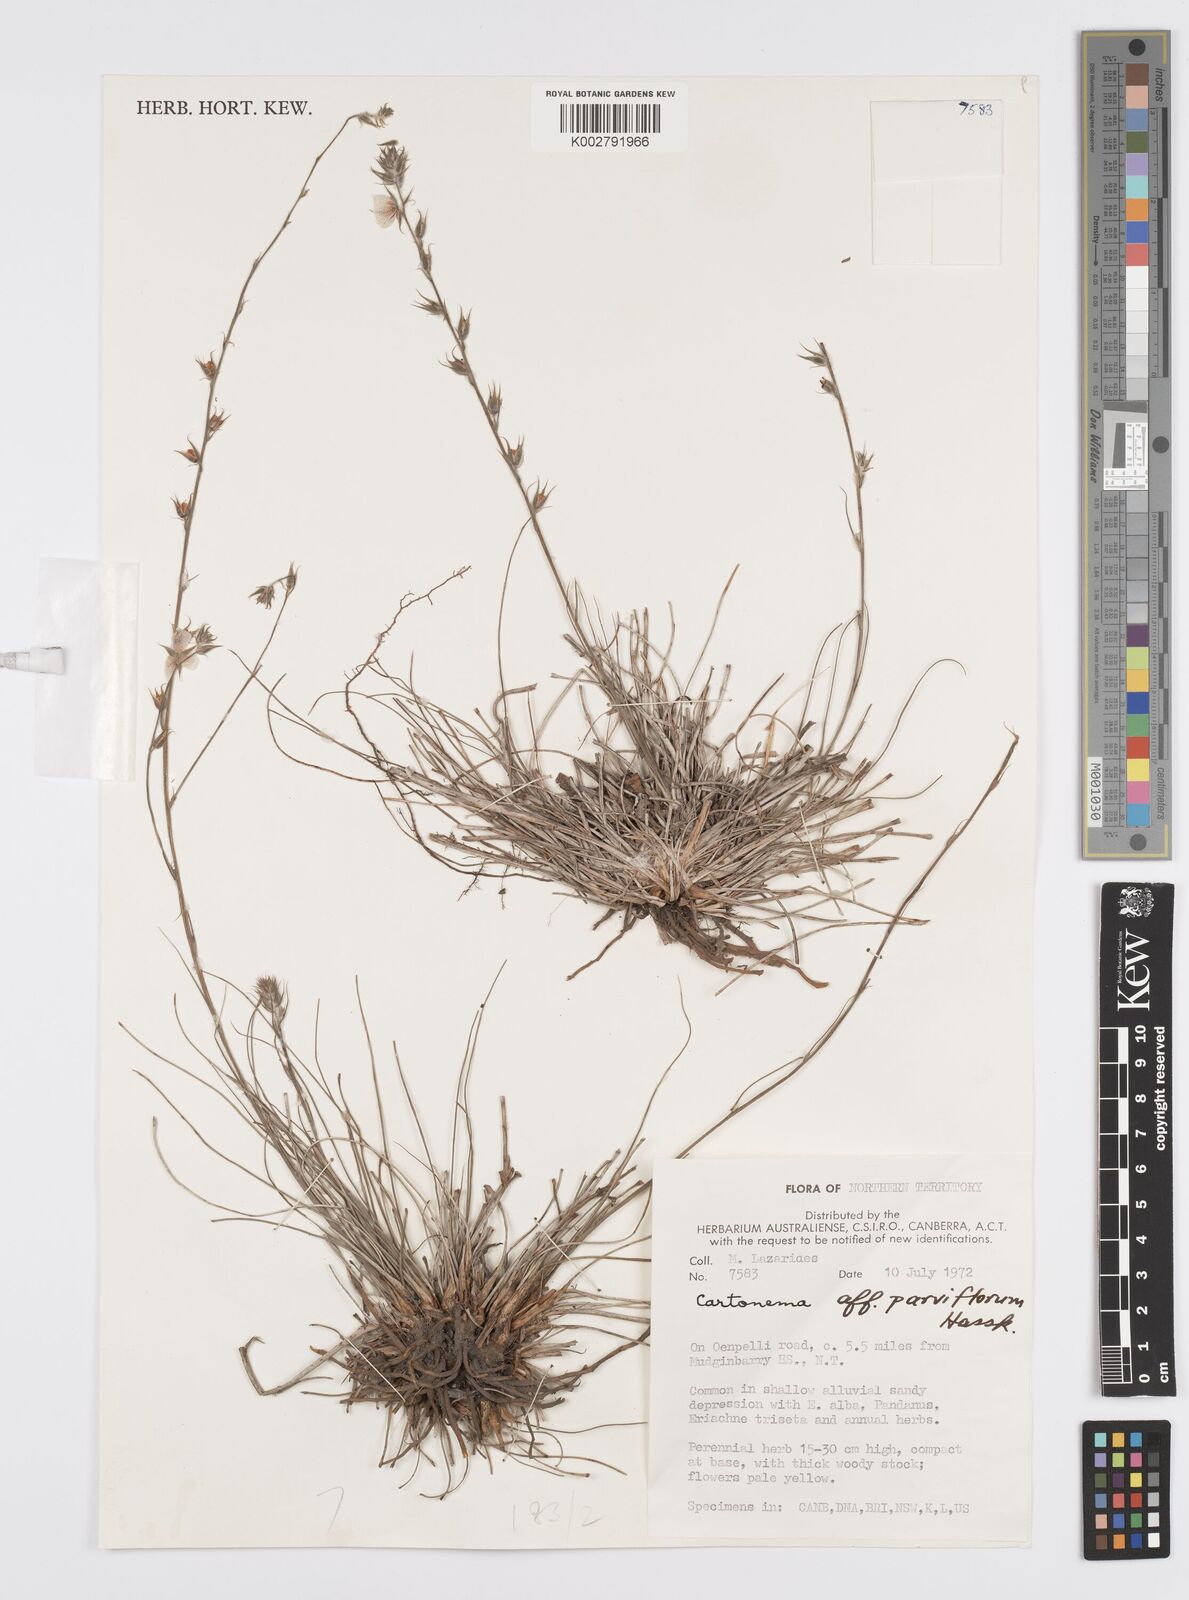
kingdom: Plantae
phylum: Tracheophyta
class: Liliopsida
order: Commelinales
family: Commelinaceae
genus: Cartonema
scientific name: Cartonema parviflorum
